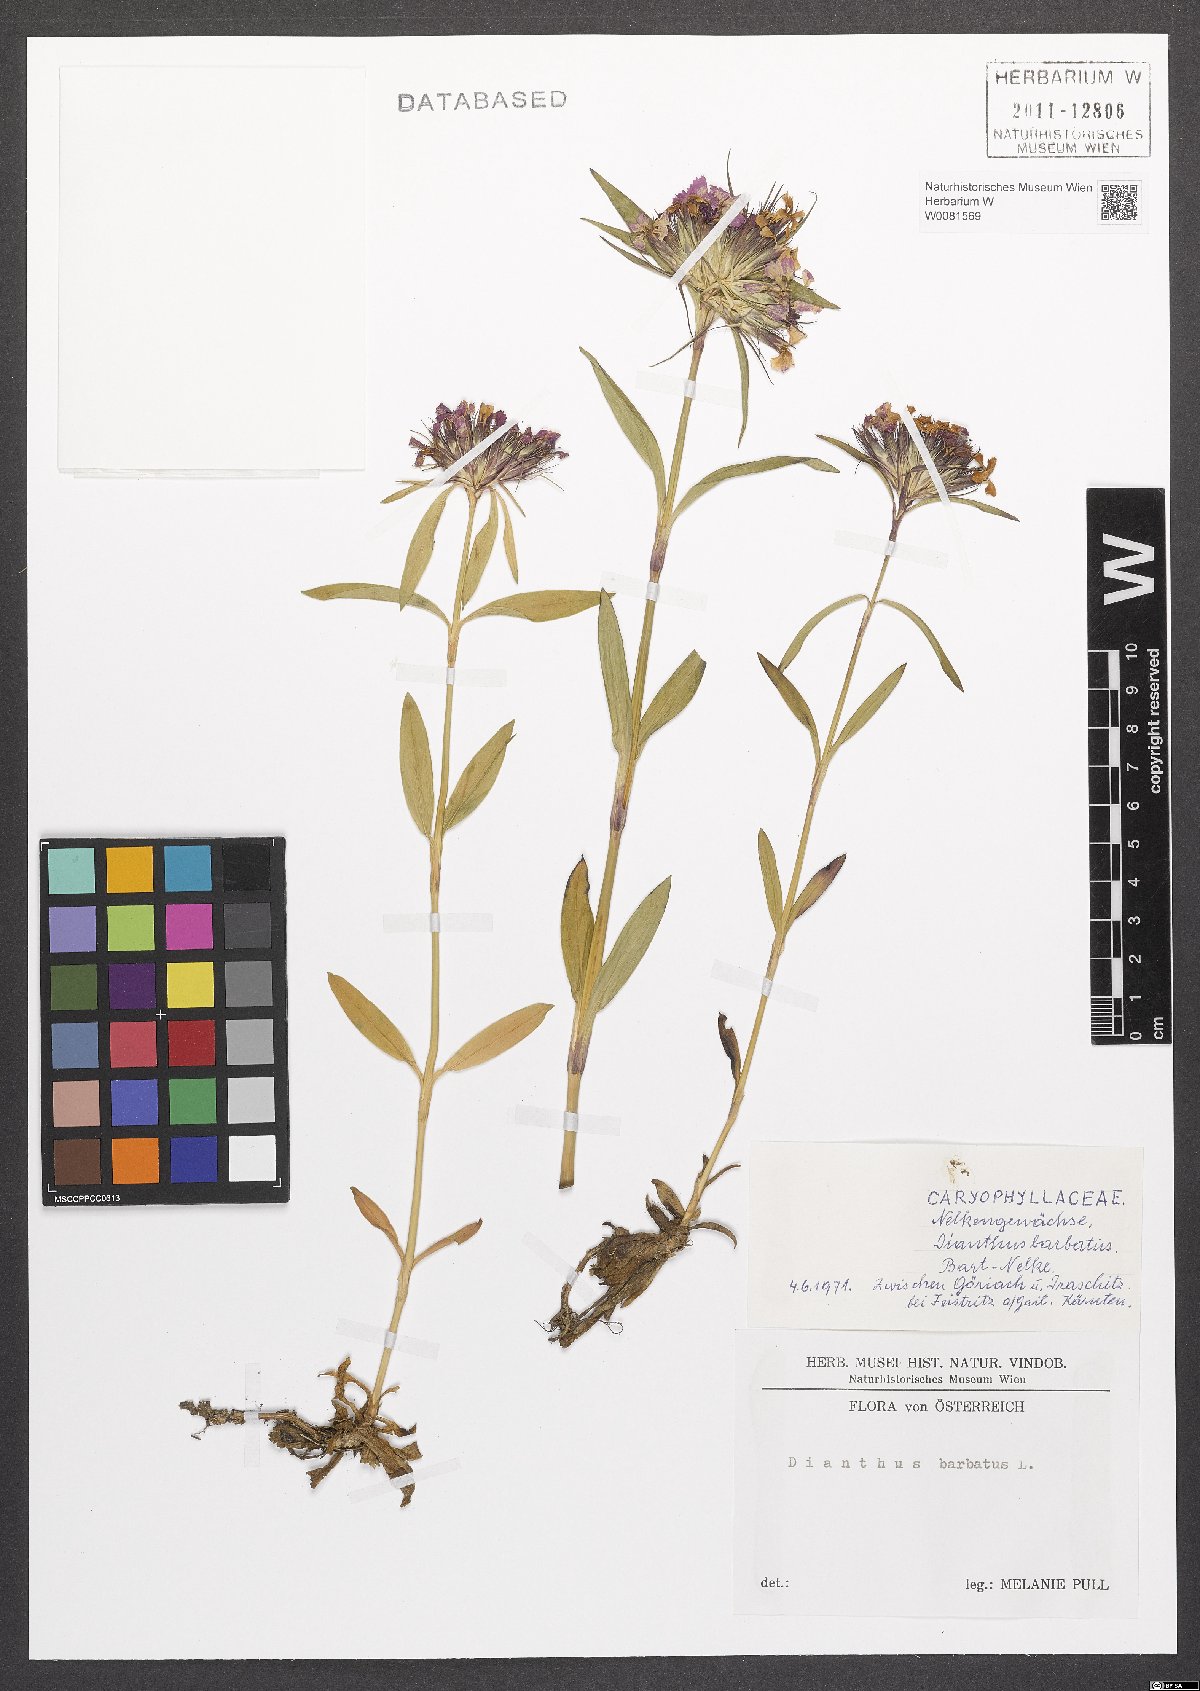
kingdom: Plantae
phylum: Tracheophyta
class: Magnoliopsida
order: Caryophyllales
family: Caryophyllaceae
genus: Dianthus
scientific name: Dianthus barbatus
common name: Sweet-william
